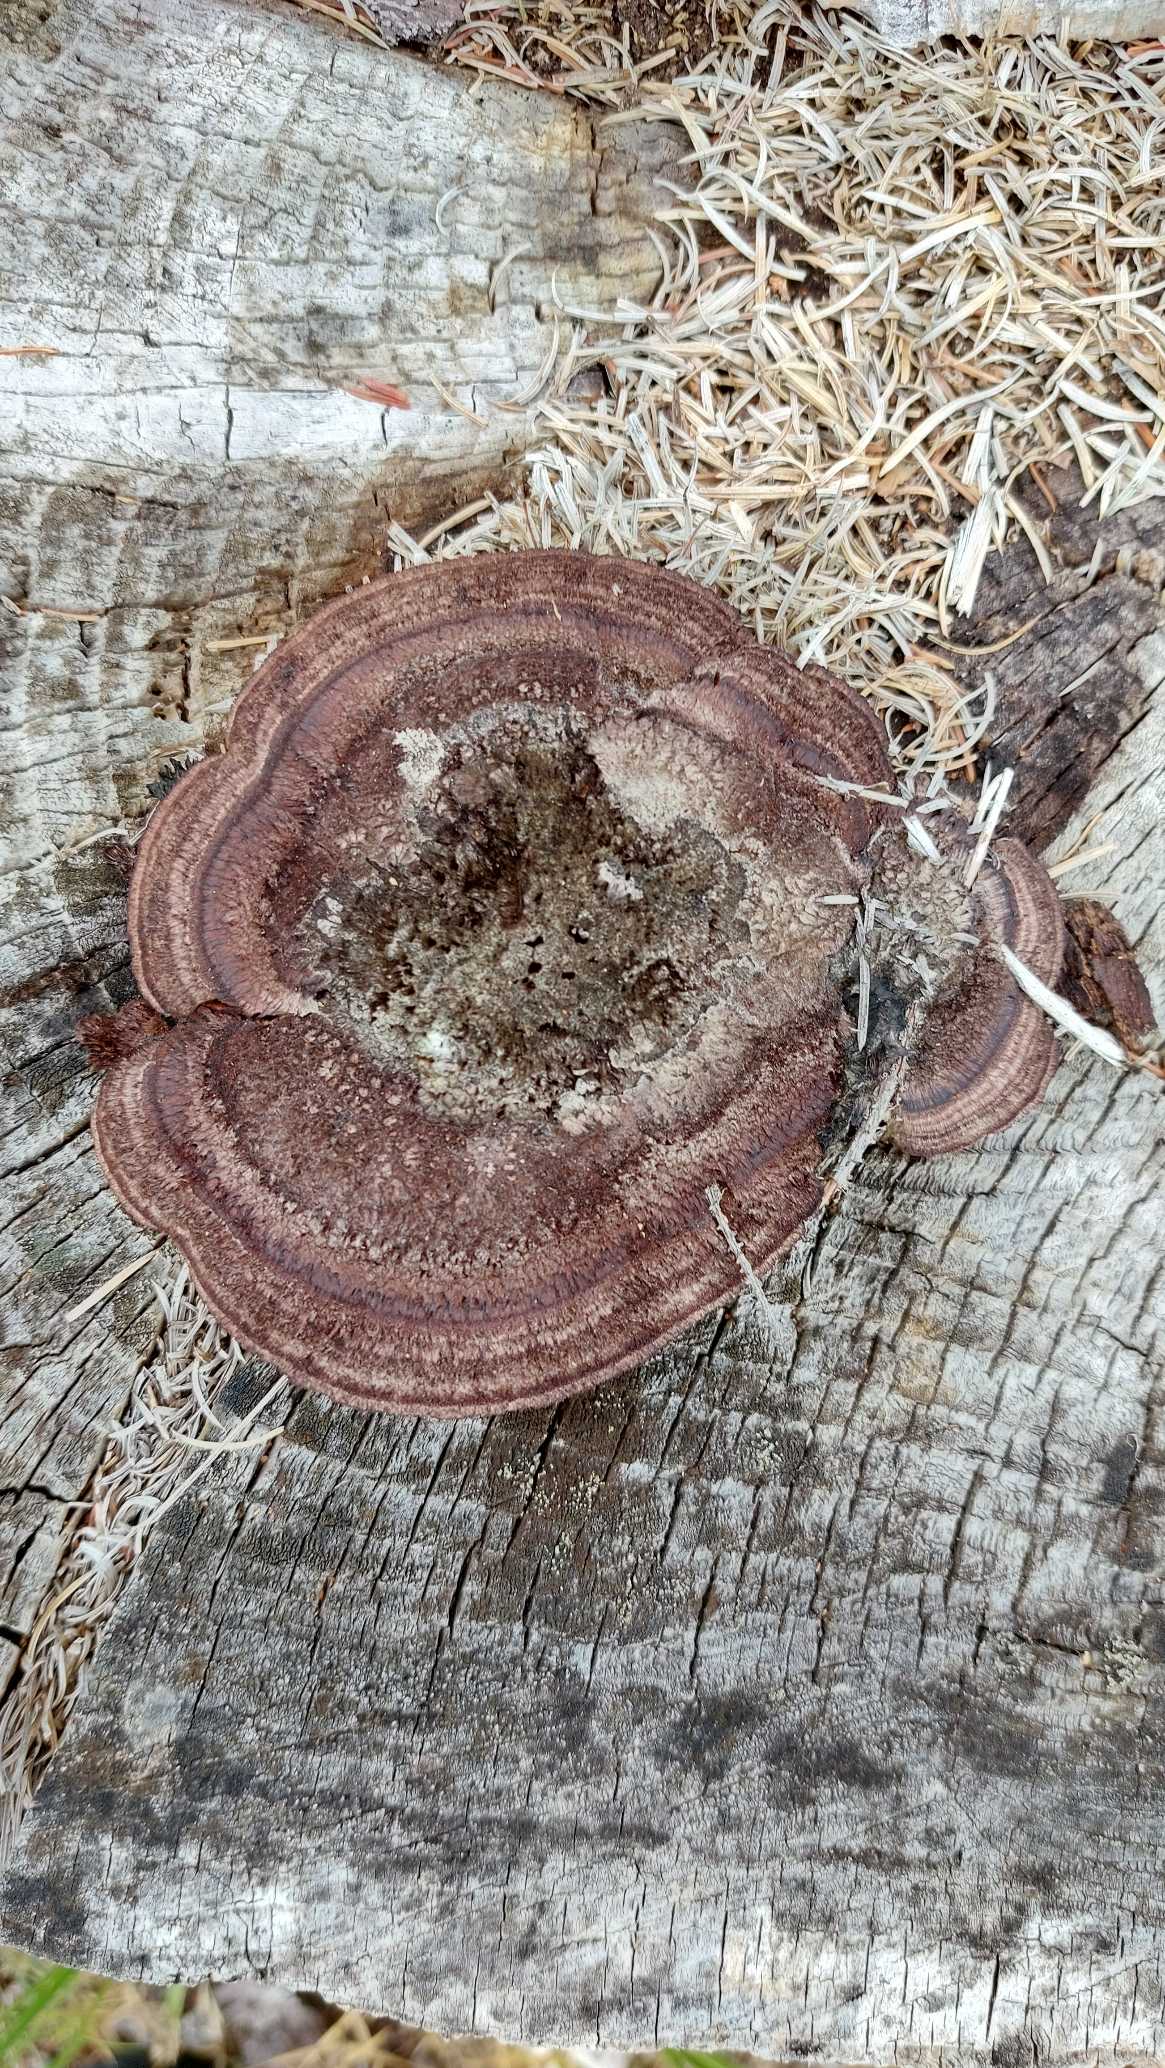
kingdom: Fungi
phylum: Basidiomycota
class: Agaricomycetes
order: Gloeophyllales
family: Gloeophyllaceae
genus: Gloeophyllum
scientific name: Gloeophyllum sepiarium
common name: Fyrre-korkhat
